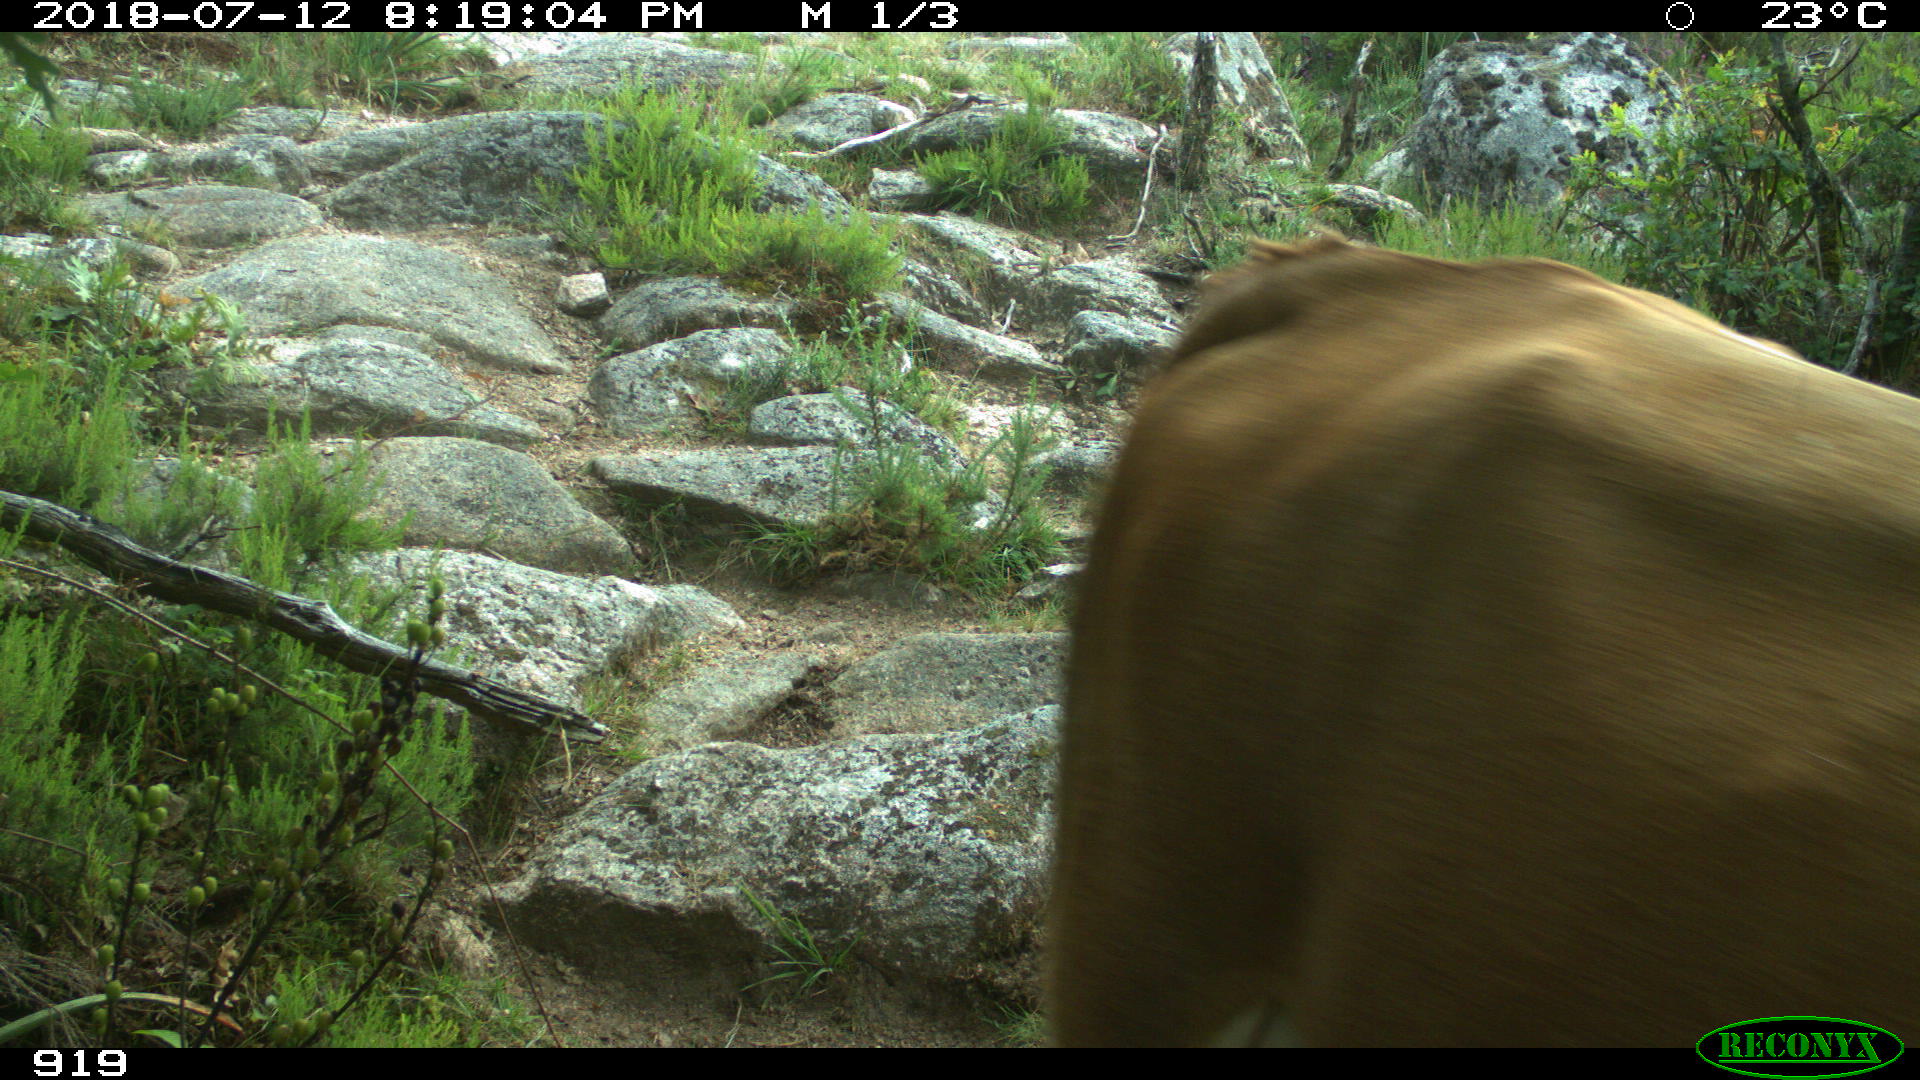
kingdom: Animalia
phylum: Chordata
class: Mammalia
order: Artiodactyla
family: Bovidae
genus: Bos
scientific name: Bos taurus
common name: Domesticated cattle
